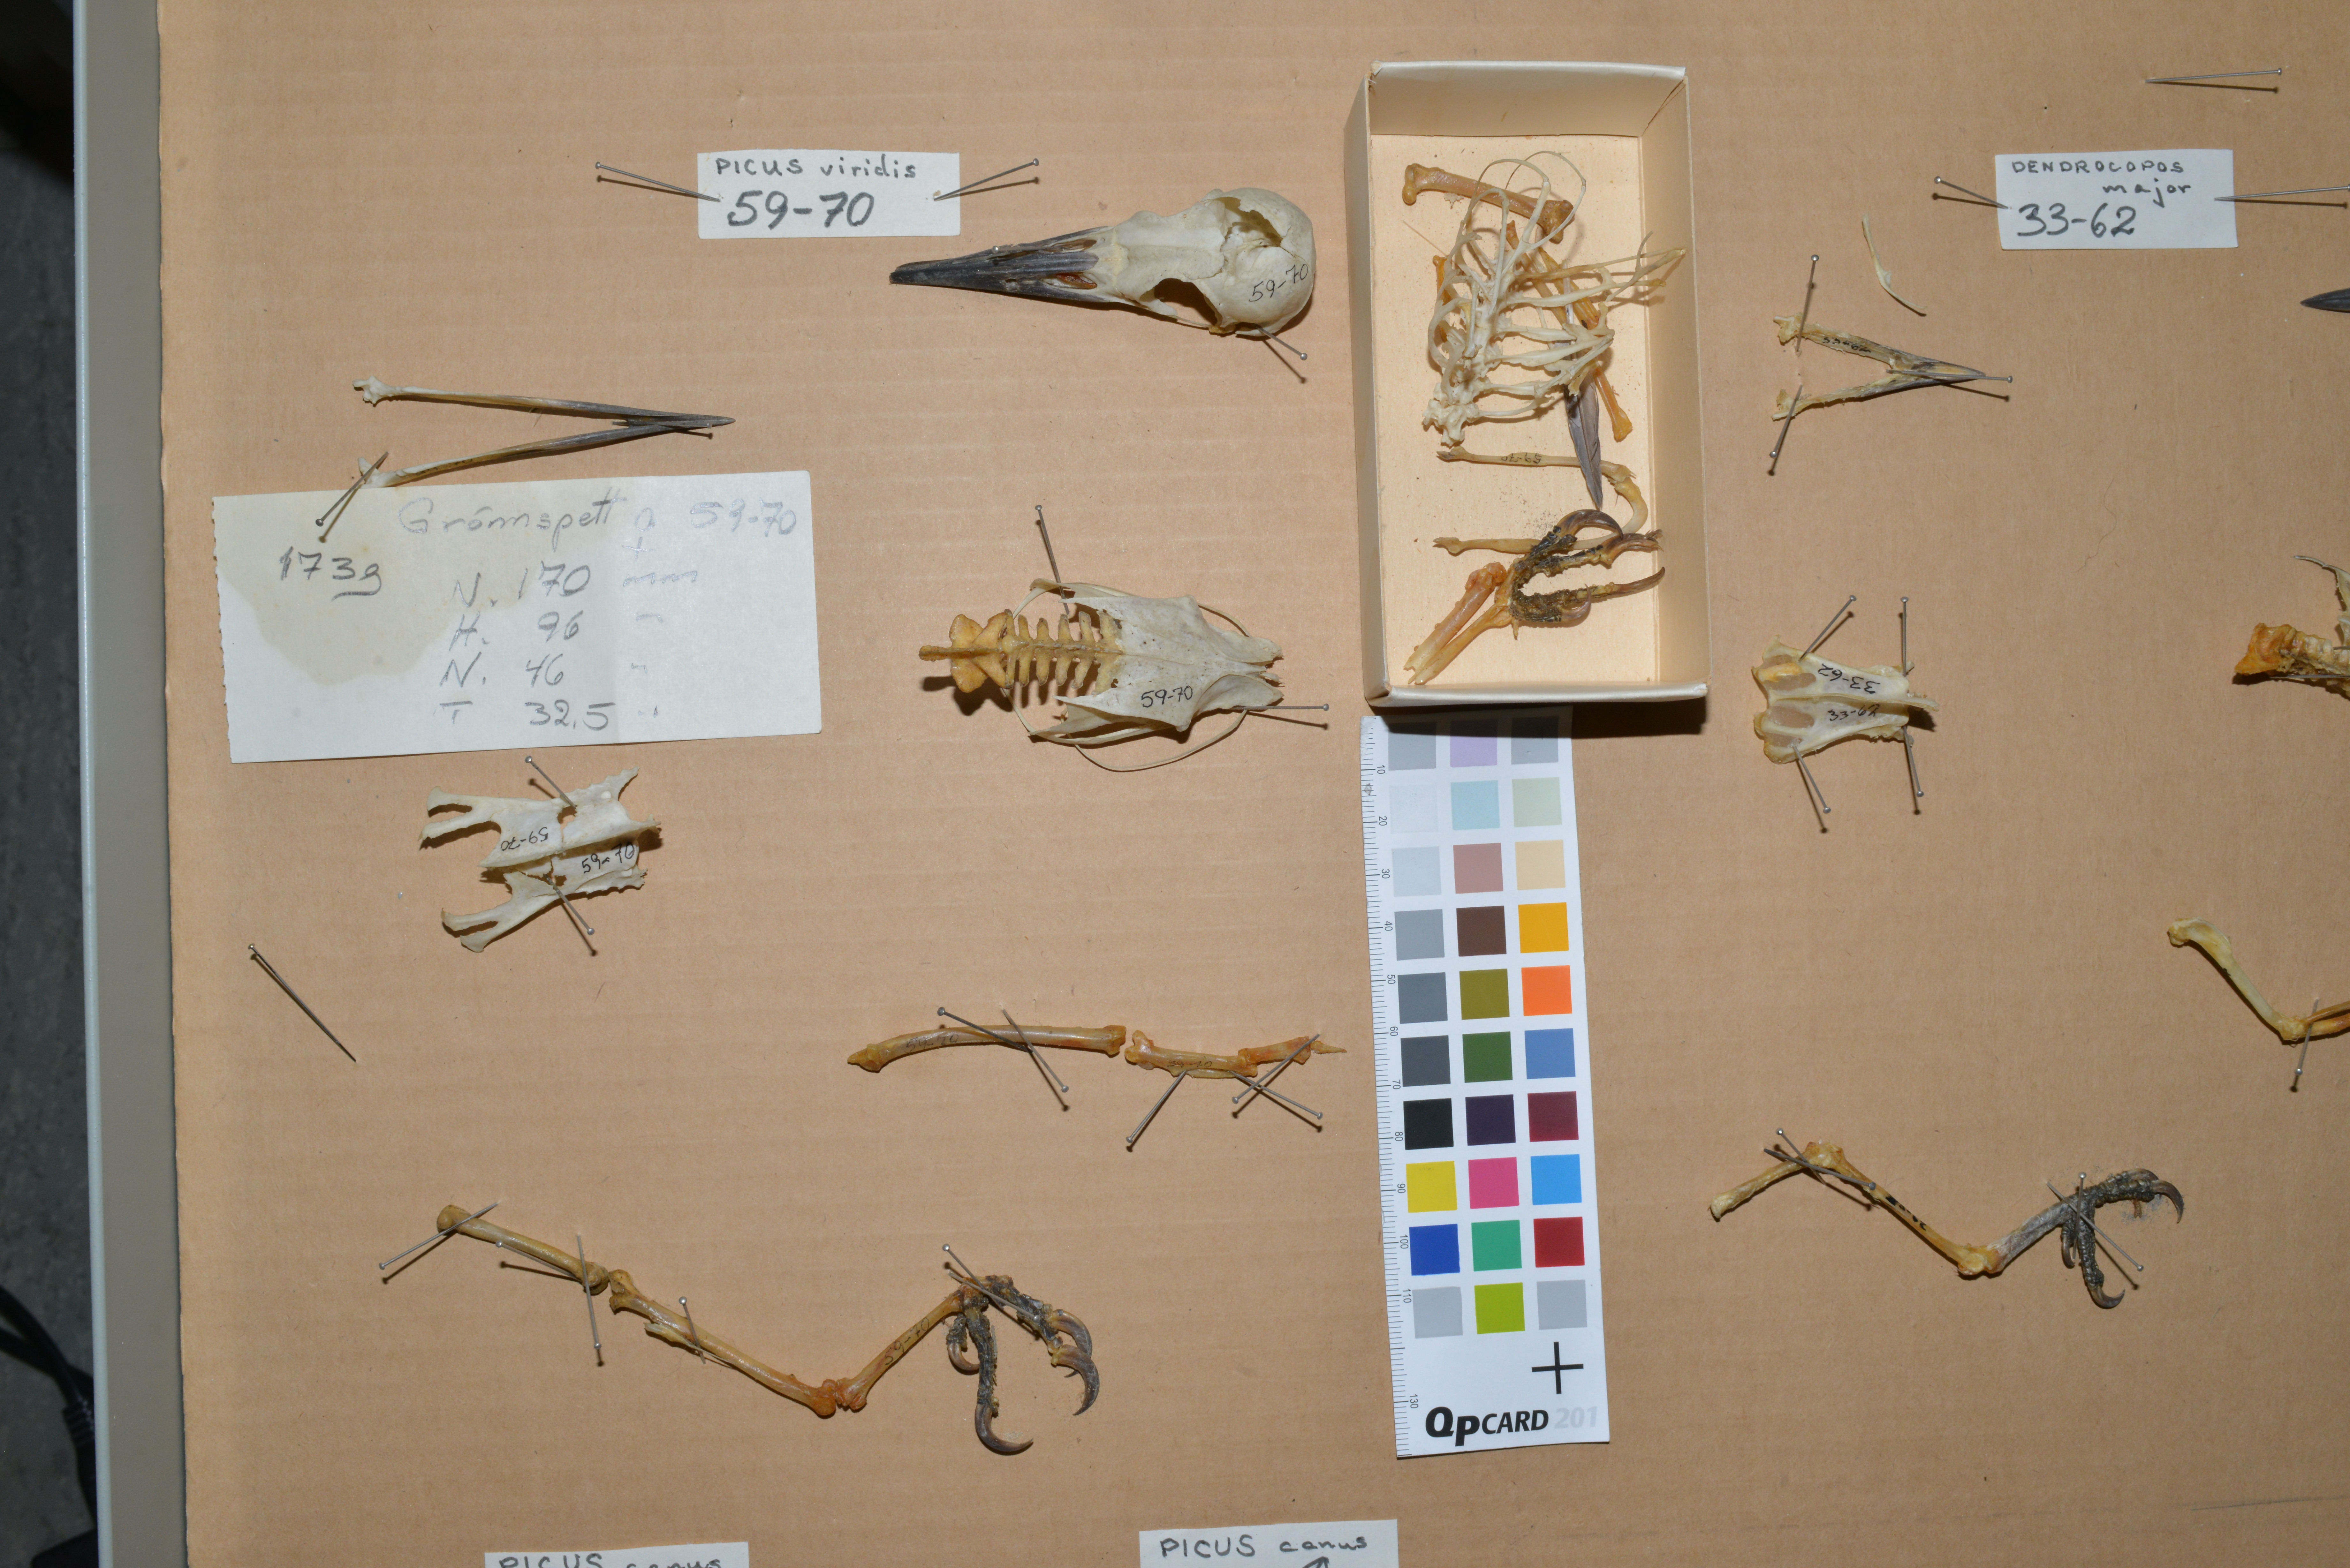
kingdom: Animalia
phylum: Chordata
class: Aves
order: Piciformes
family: Picidae
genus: Picus
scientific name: Picus viridis
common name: European green woodpecker
